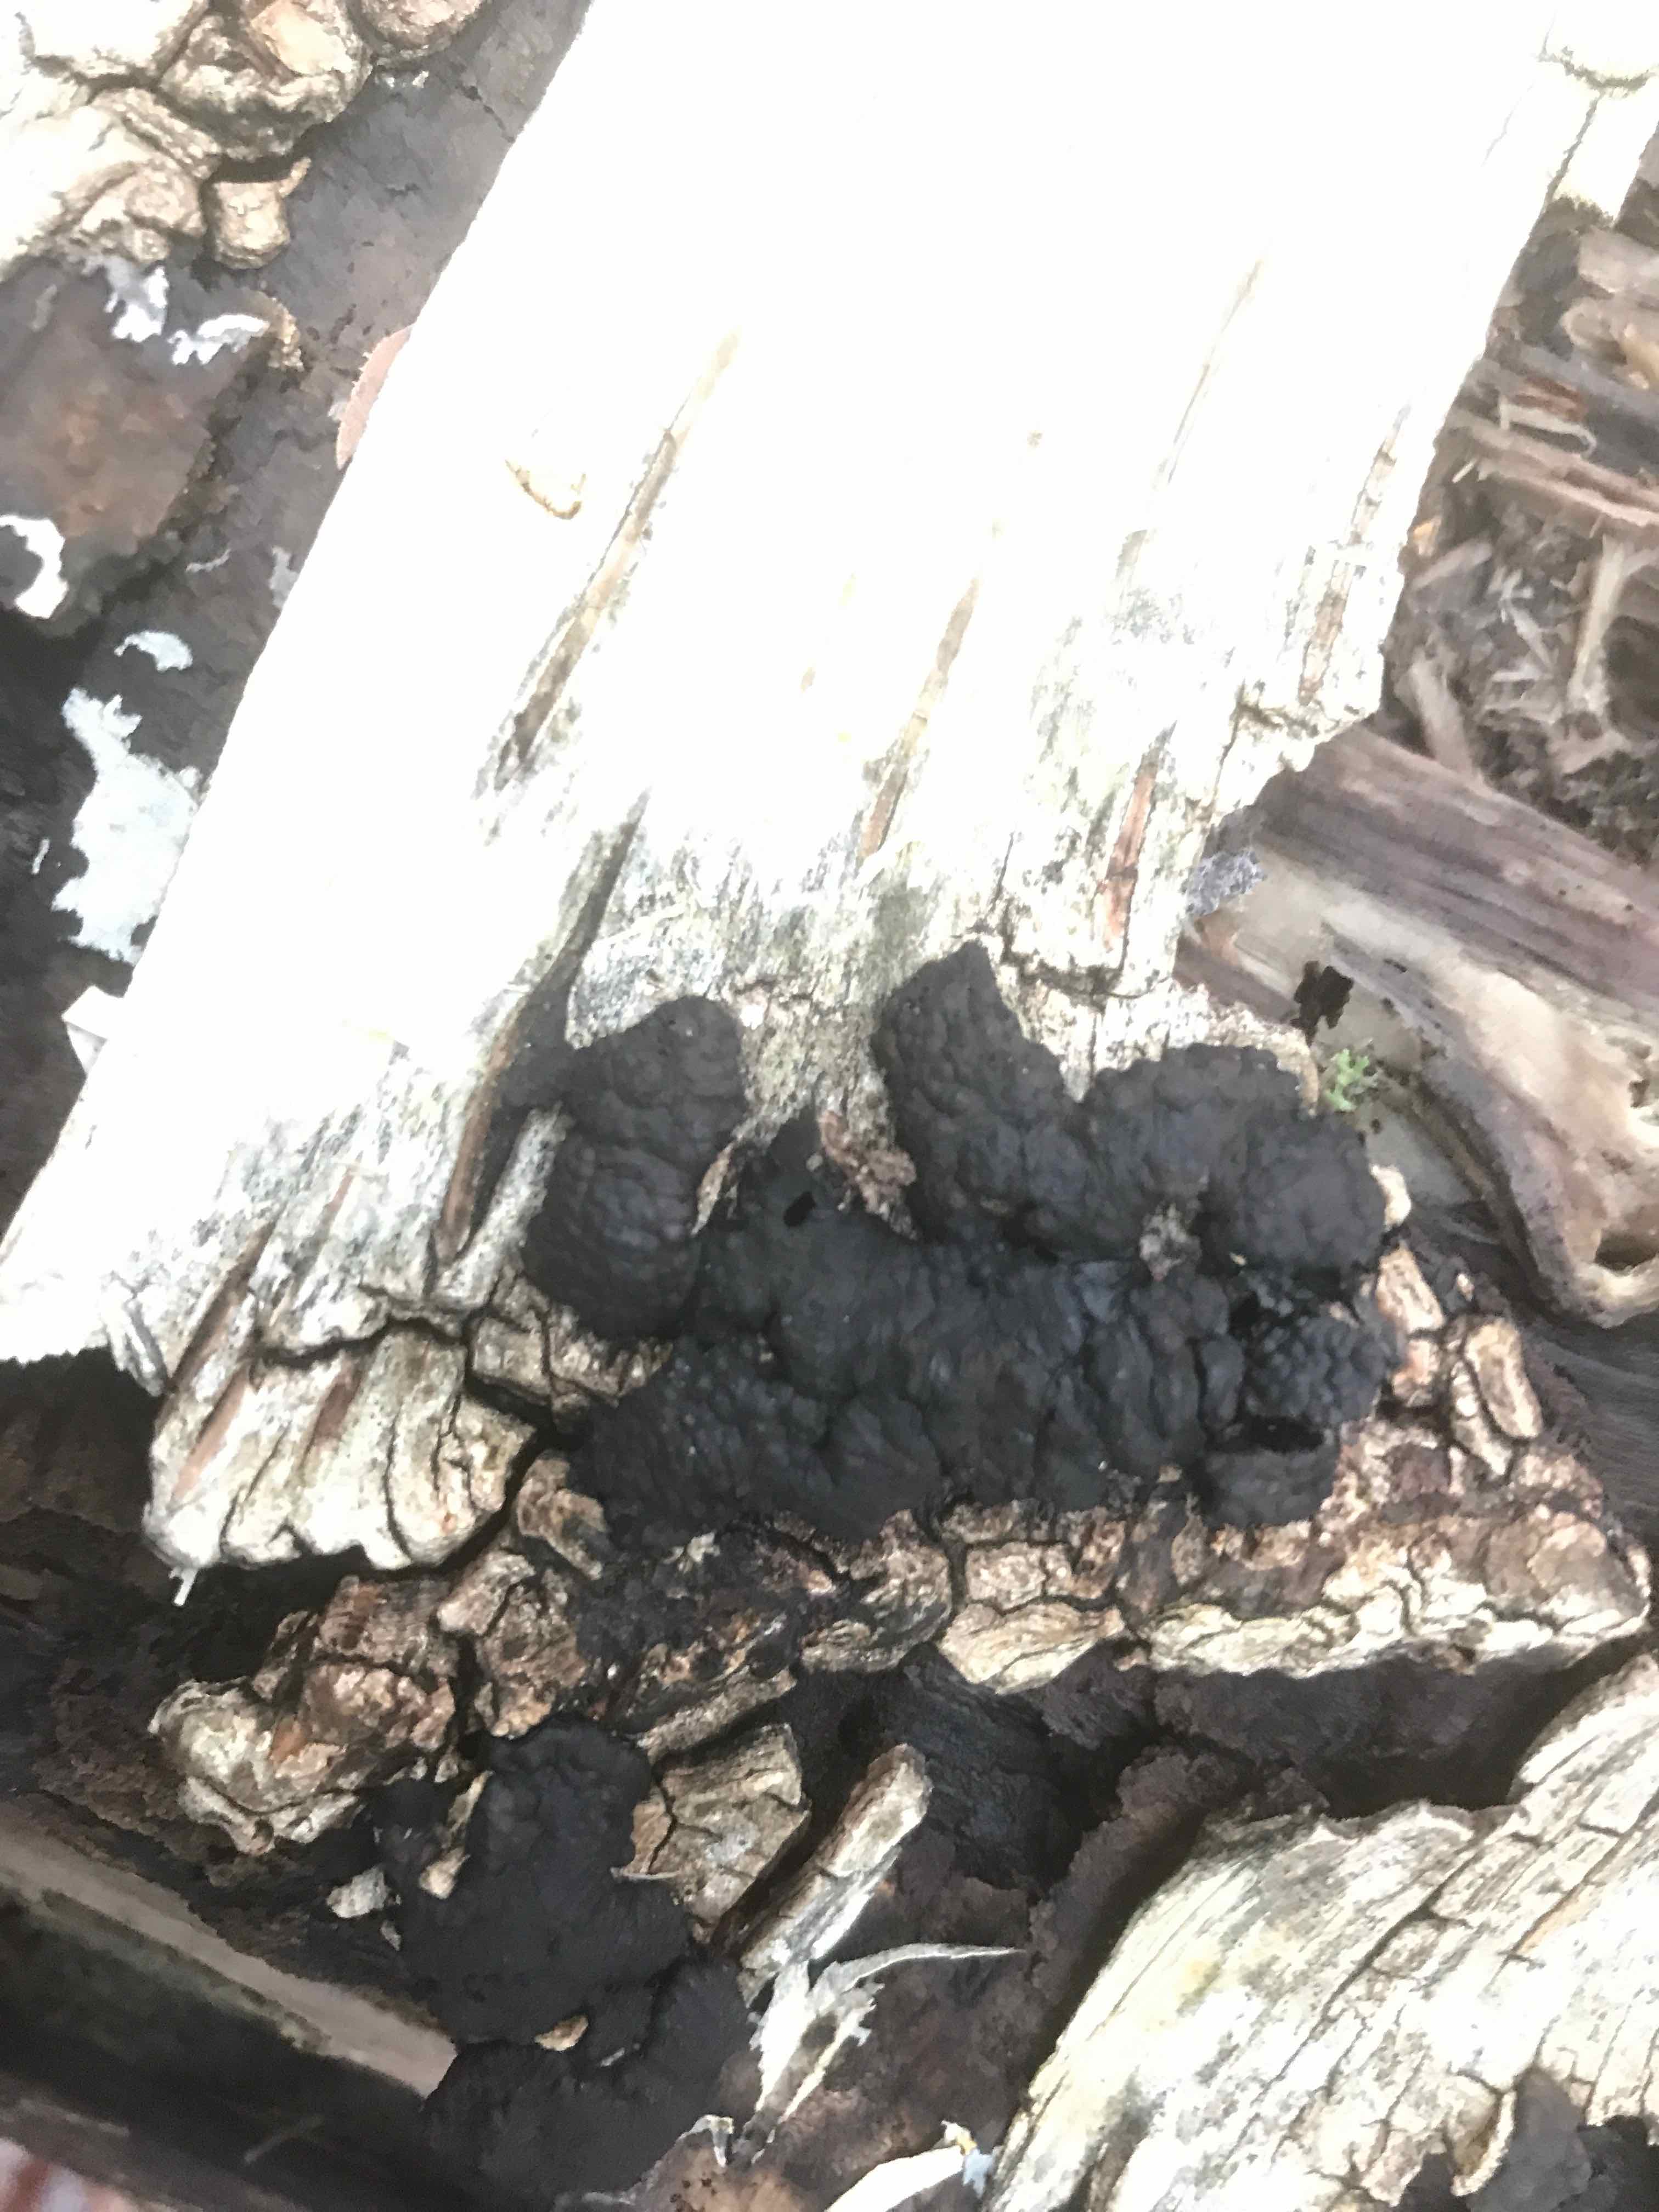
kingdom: Fungi
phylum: Ascomycota
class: Sordariomycetes
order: Xylariales
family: Hypoxylaceae
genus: Jackrogersella
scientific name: Jackrogersella multiformis
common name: foranderlig kulbær
